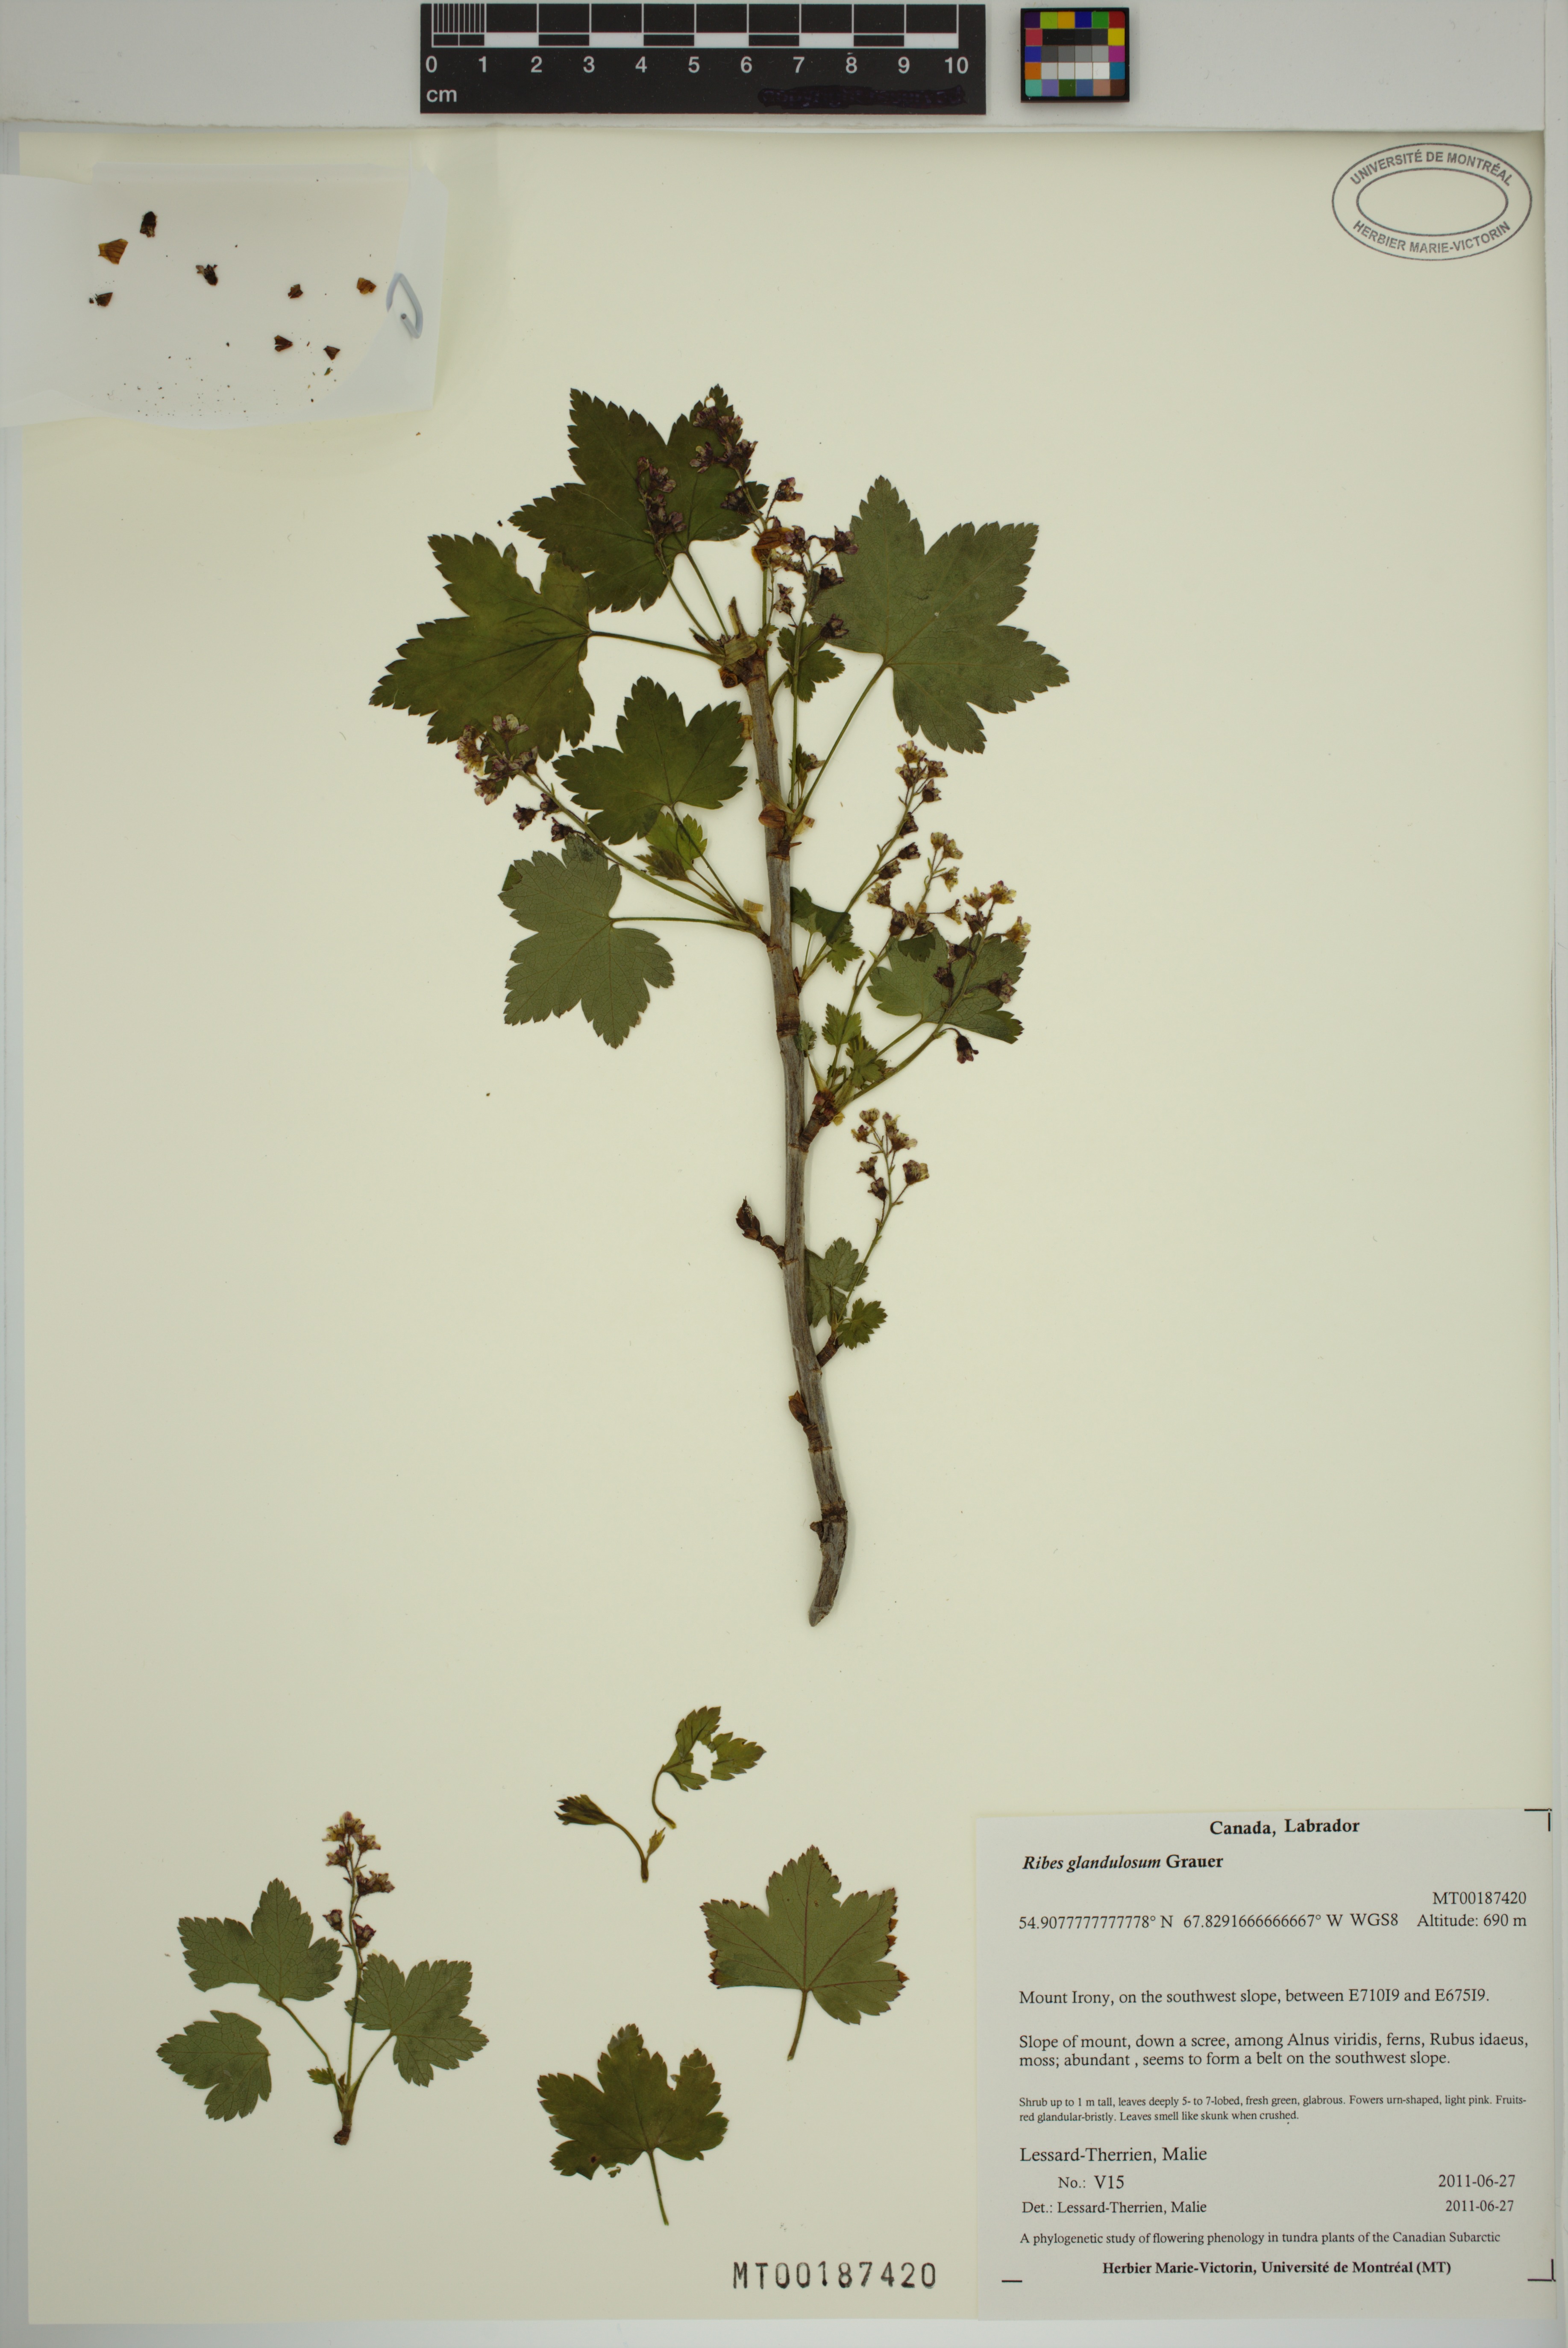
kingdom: Plantae
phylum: Tracheophyta
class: Magnoliopsida
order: Saxifragales
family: Grossulariaceae
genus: Ribes
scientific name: Ribes glandulosum
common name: Skunk currant
